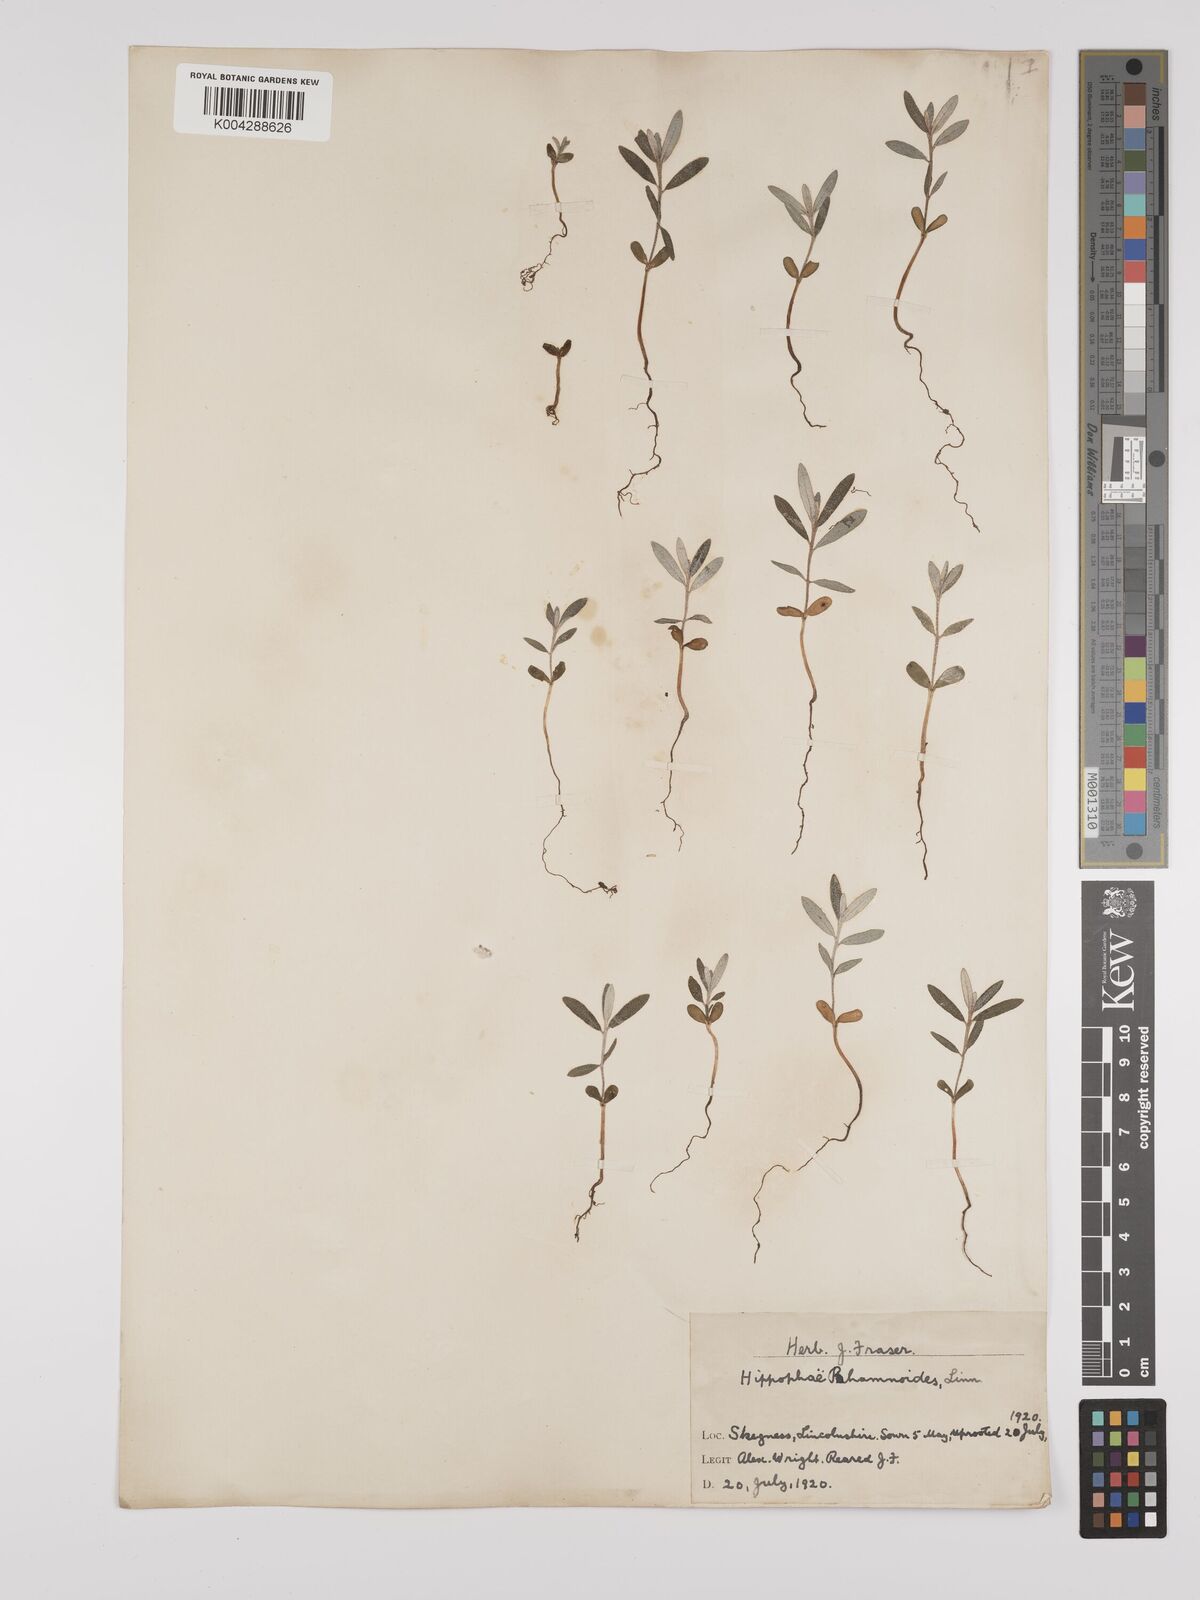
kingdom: Plantae
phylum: Tracheophyta
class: Magnoliopsida
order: Rosales
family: Elaeagnaceae
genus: Hippophae
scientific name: Hippophae rhamnoides
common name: Sea-buckthorn
